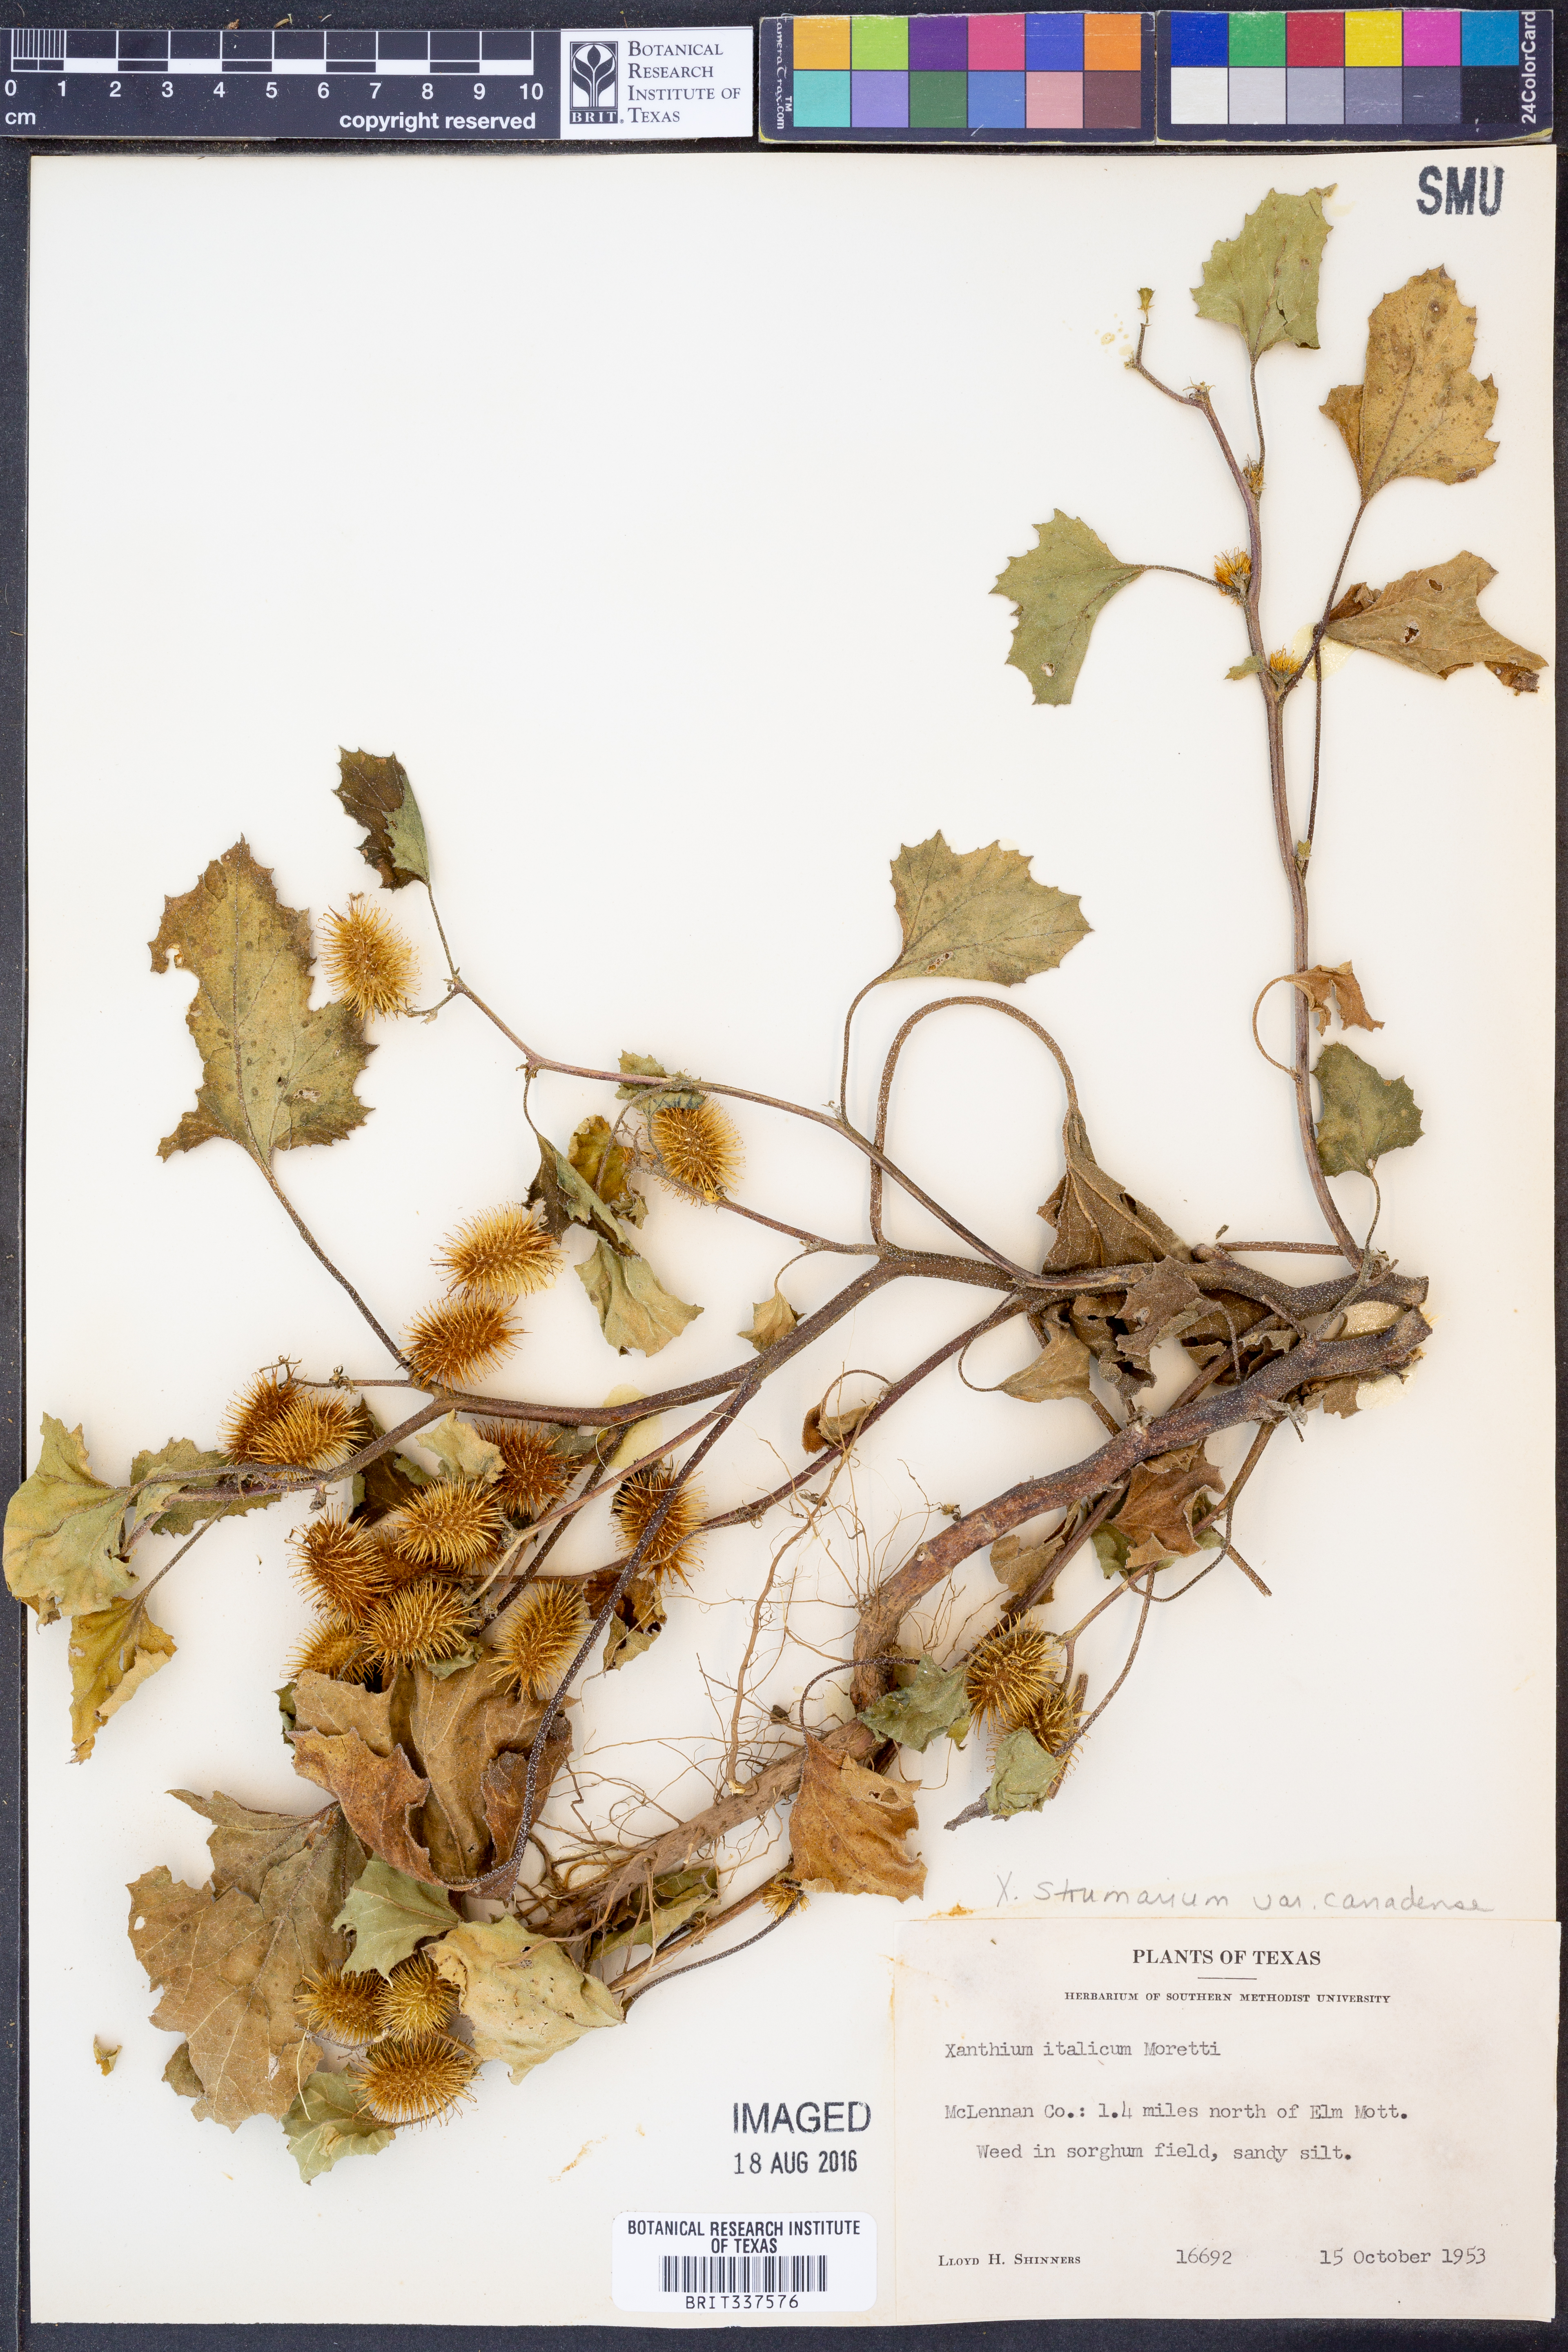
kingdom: Plantae
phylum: Tracheophyta
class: Magnoliopsida
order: Asterales
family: Asteraceae
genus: Xanthium
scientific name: Xanthium orientale
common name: Californian burr
